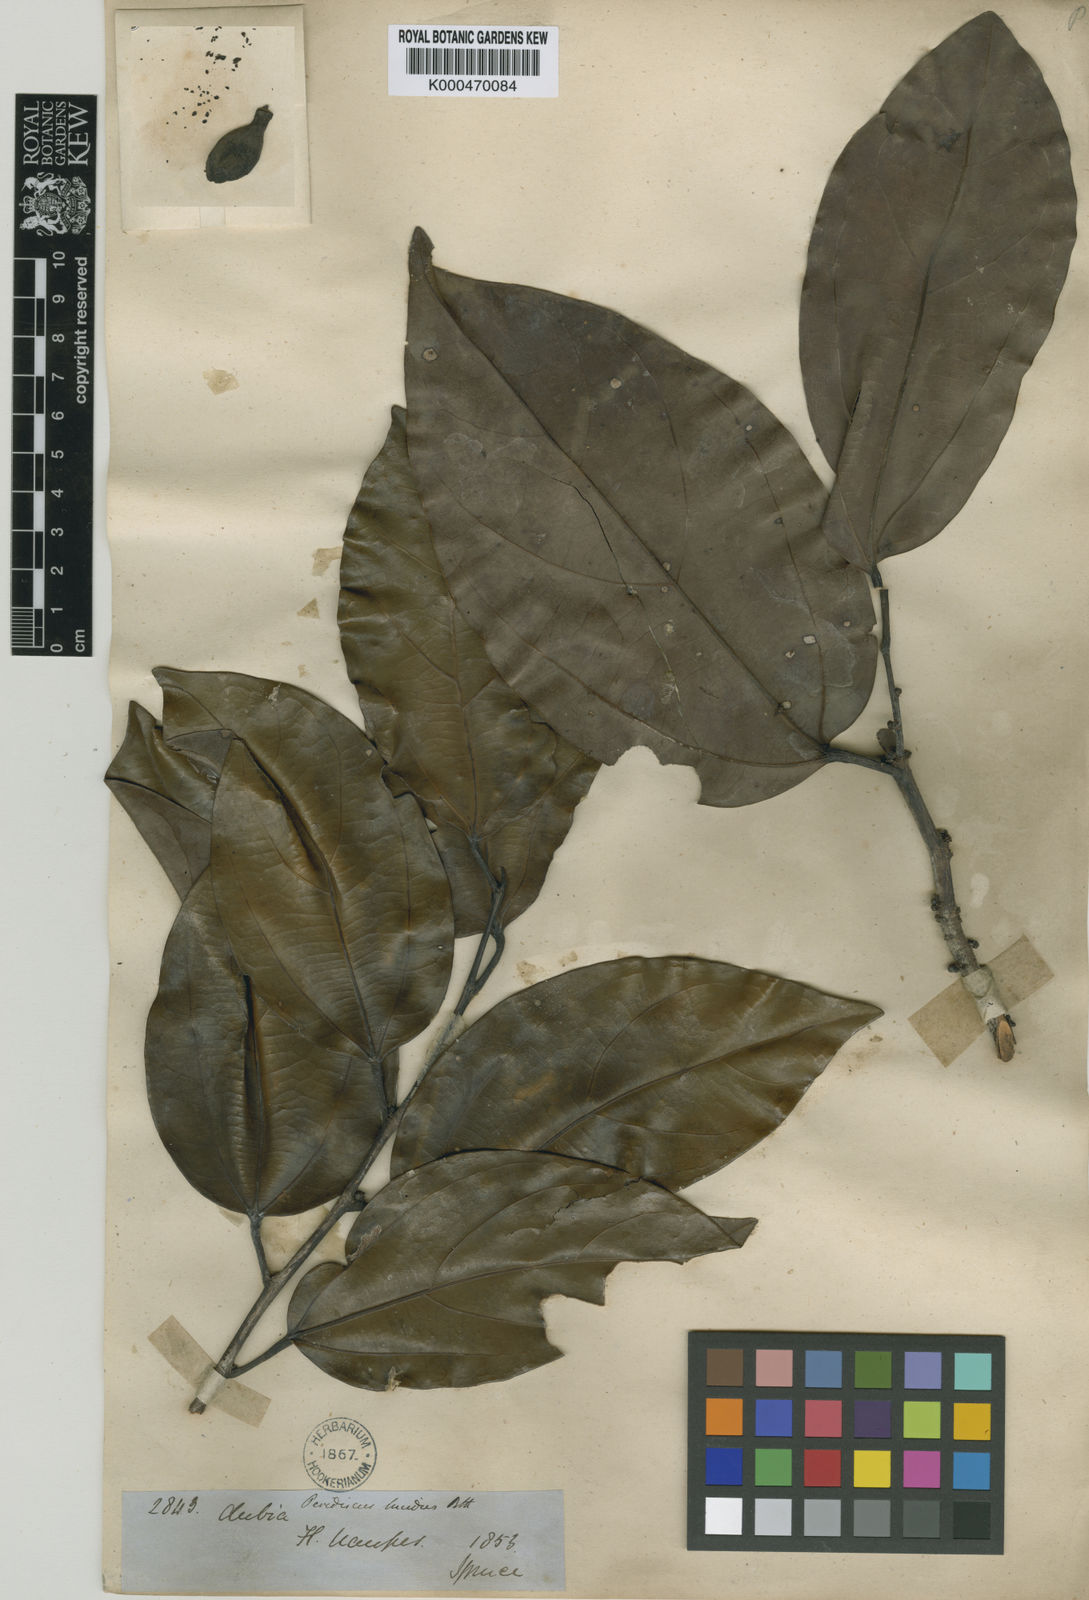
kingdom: Plantae
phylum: Tracheophyta
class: Magnoliopsida
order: Saxifragales
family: Peridiscaceae
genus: Peridiscus
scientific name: Peridiscus lucidus
